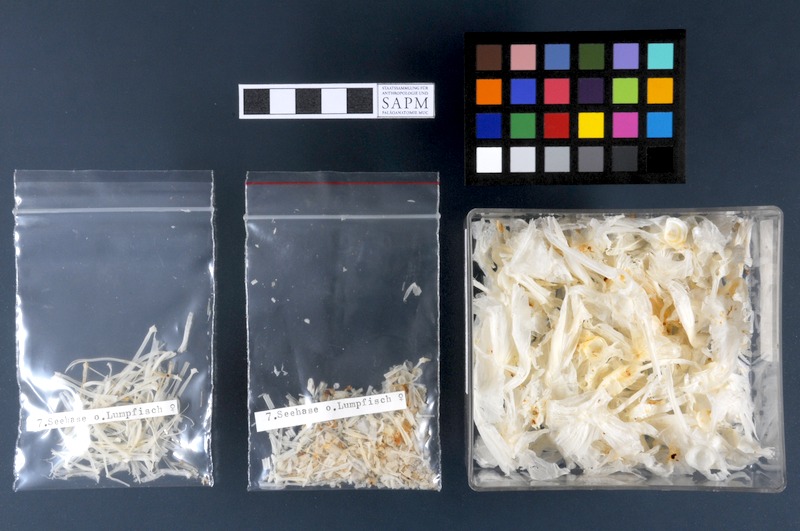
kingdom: Animalia
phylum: Chordata
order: Scorpaeniformes
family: Cyclopteridae
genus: Cyclopterus
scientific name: Cyclopterus lumpus
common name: Lumpsucker
